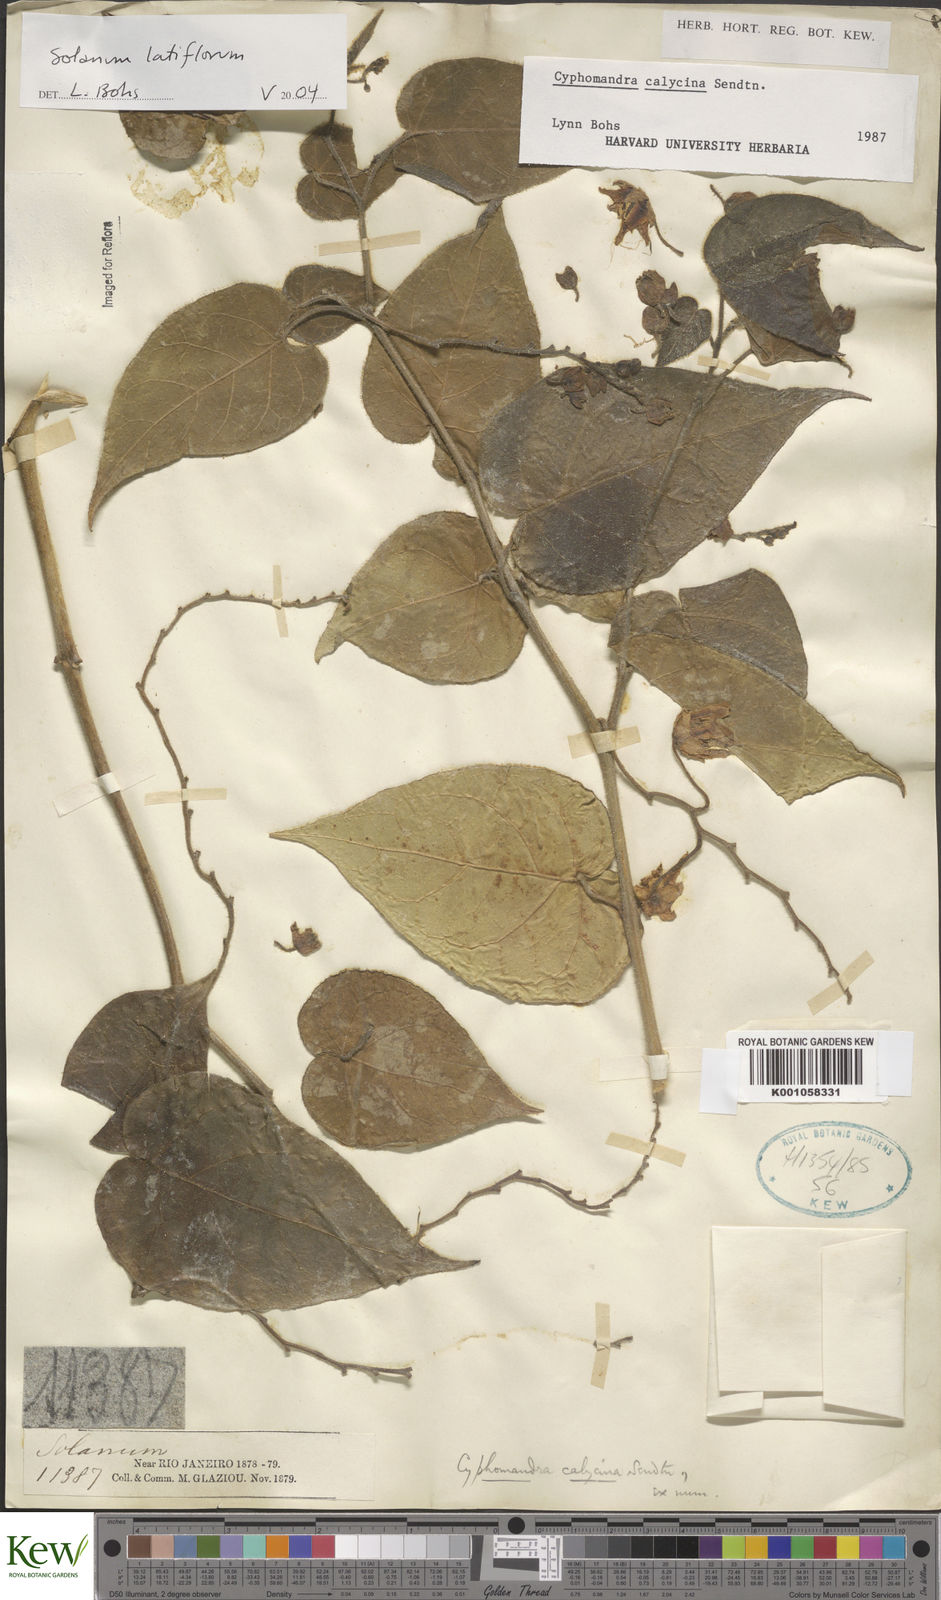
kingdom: Plantae
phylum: Tracheophyta
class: Magnoliopsida
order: Solanales
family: Solanaceae
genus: Solanum
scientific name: Solanum latiflorum
